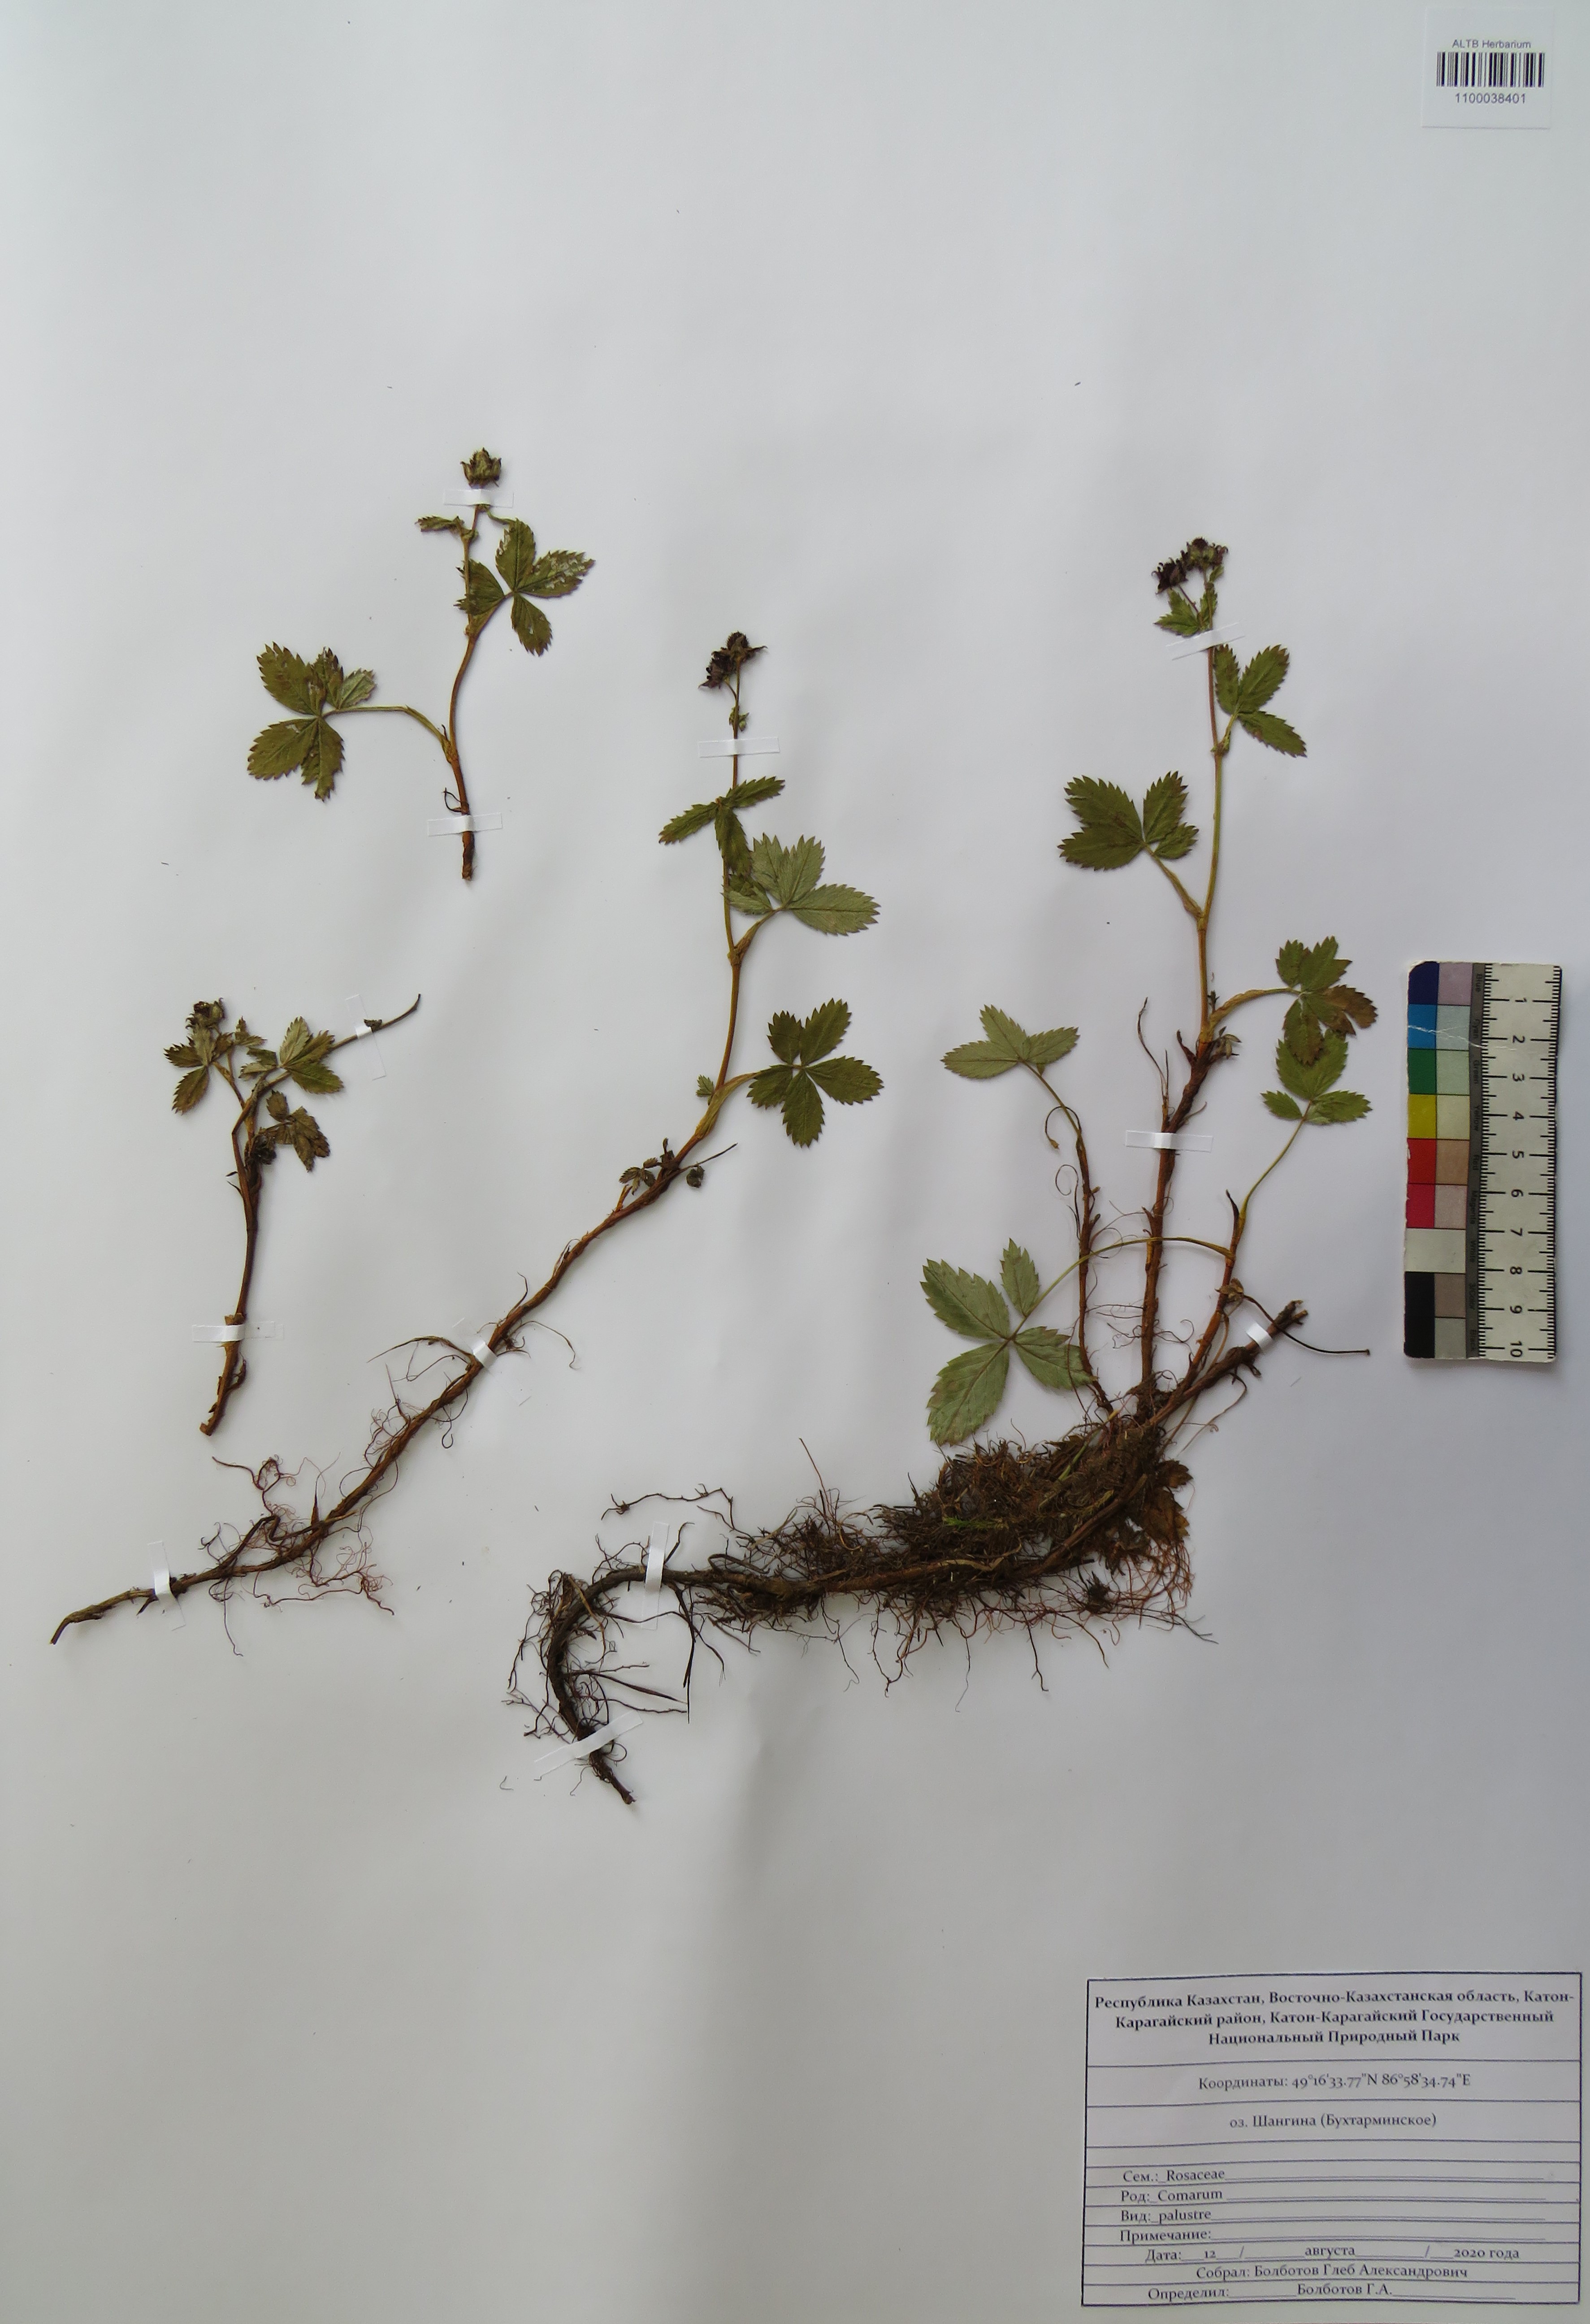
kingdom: Plantae
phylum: Tracheophyta
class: Magnoliopsida
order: Rosales
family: Rosaceae
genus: Comarum
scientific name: Comarum palustre
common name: Marsh cinquefoil
